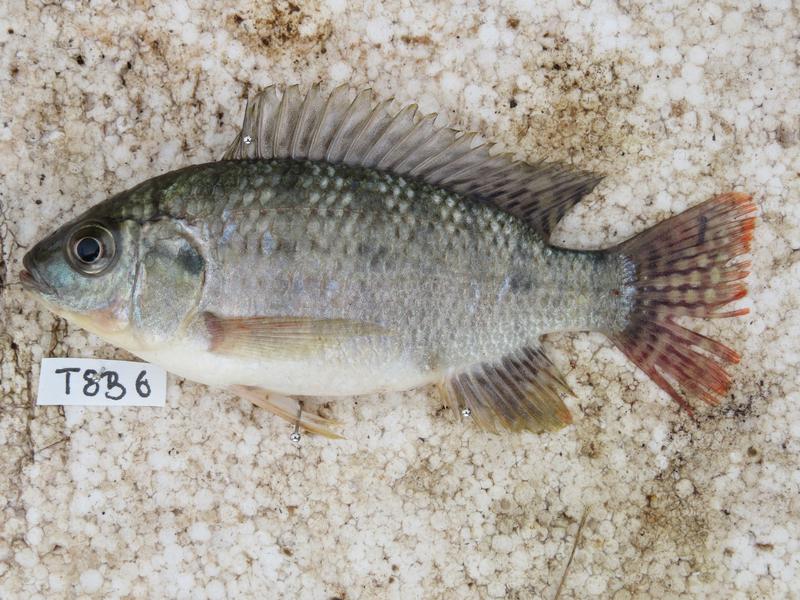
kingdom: Animalia
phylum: Chordata
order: Perciformes
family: Cichlidae
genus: Oreochromis
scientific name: Oreochromis shiranus
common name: Chilwa tilapia
